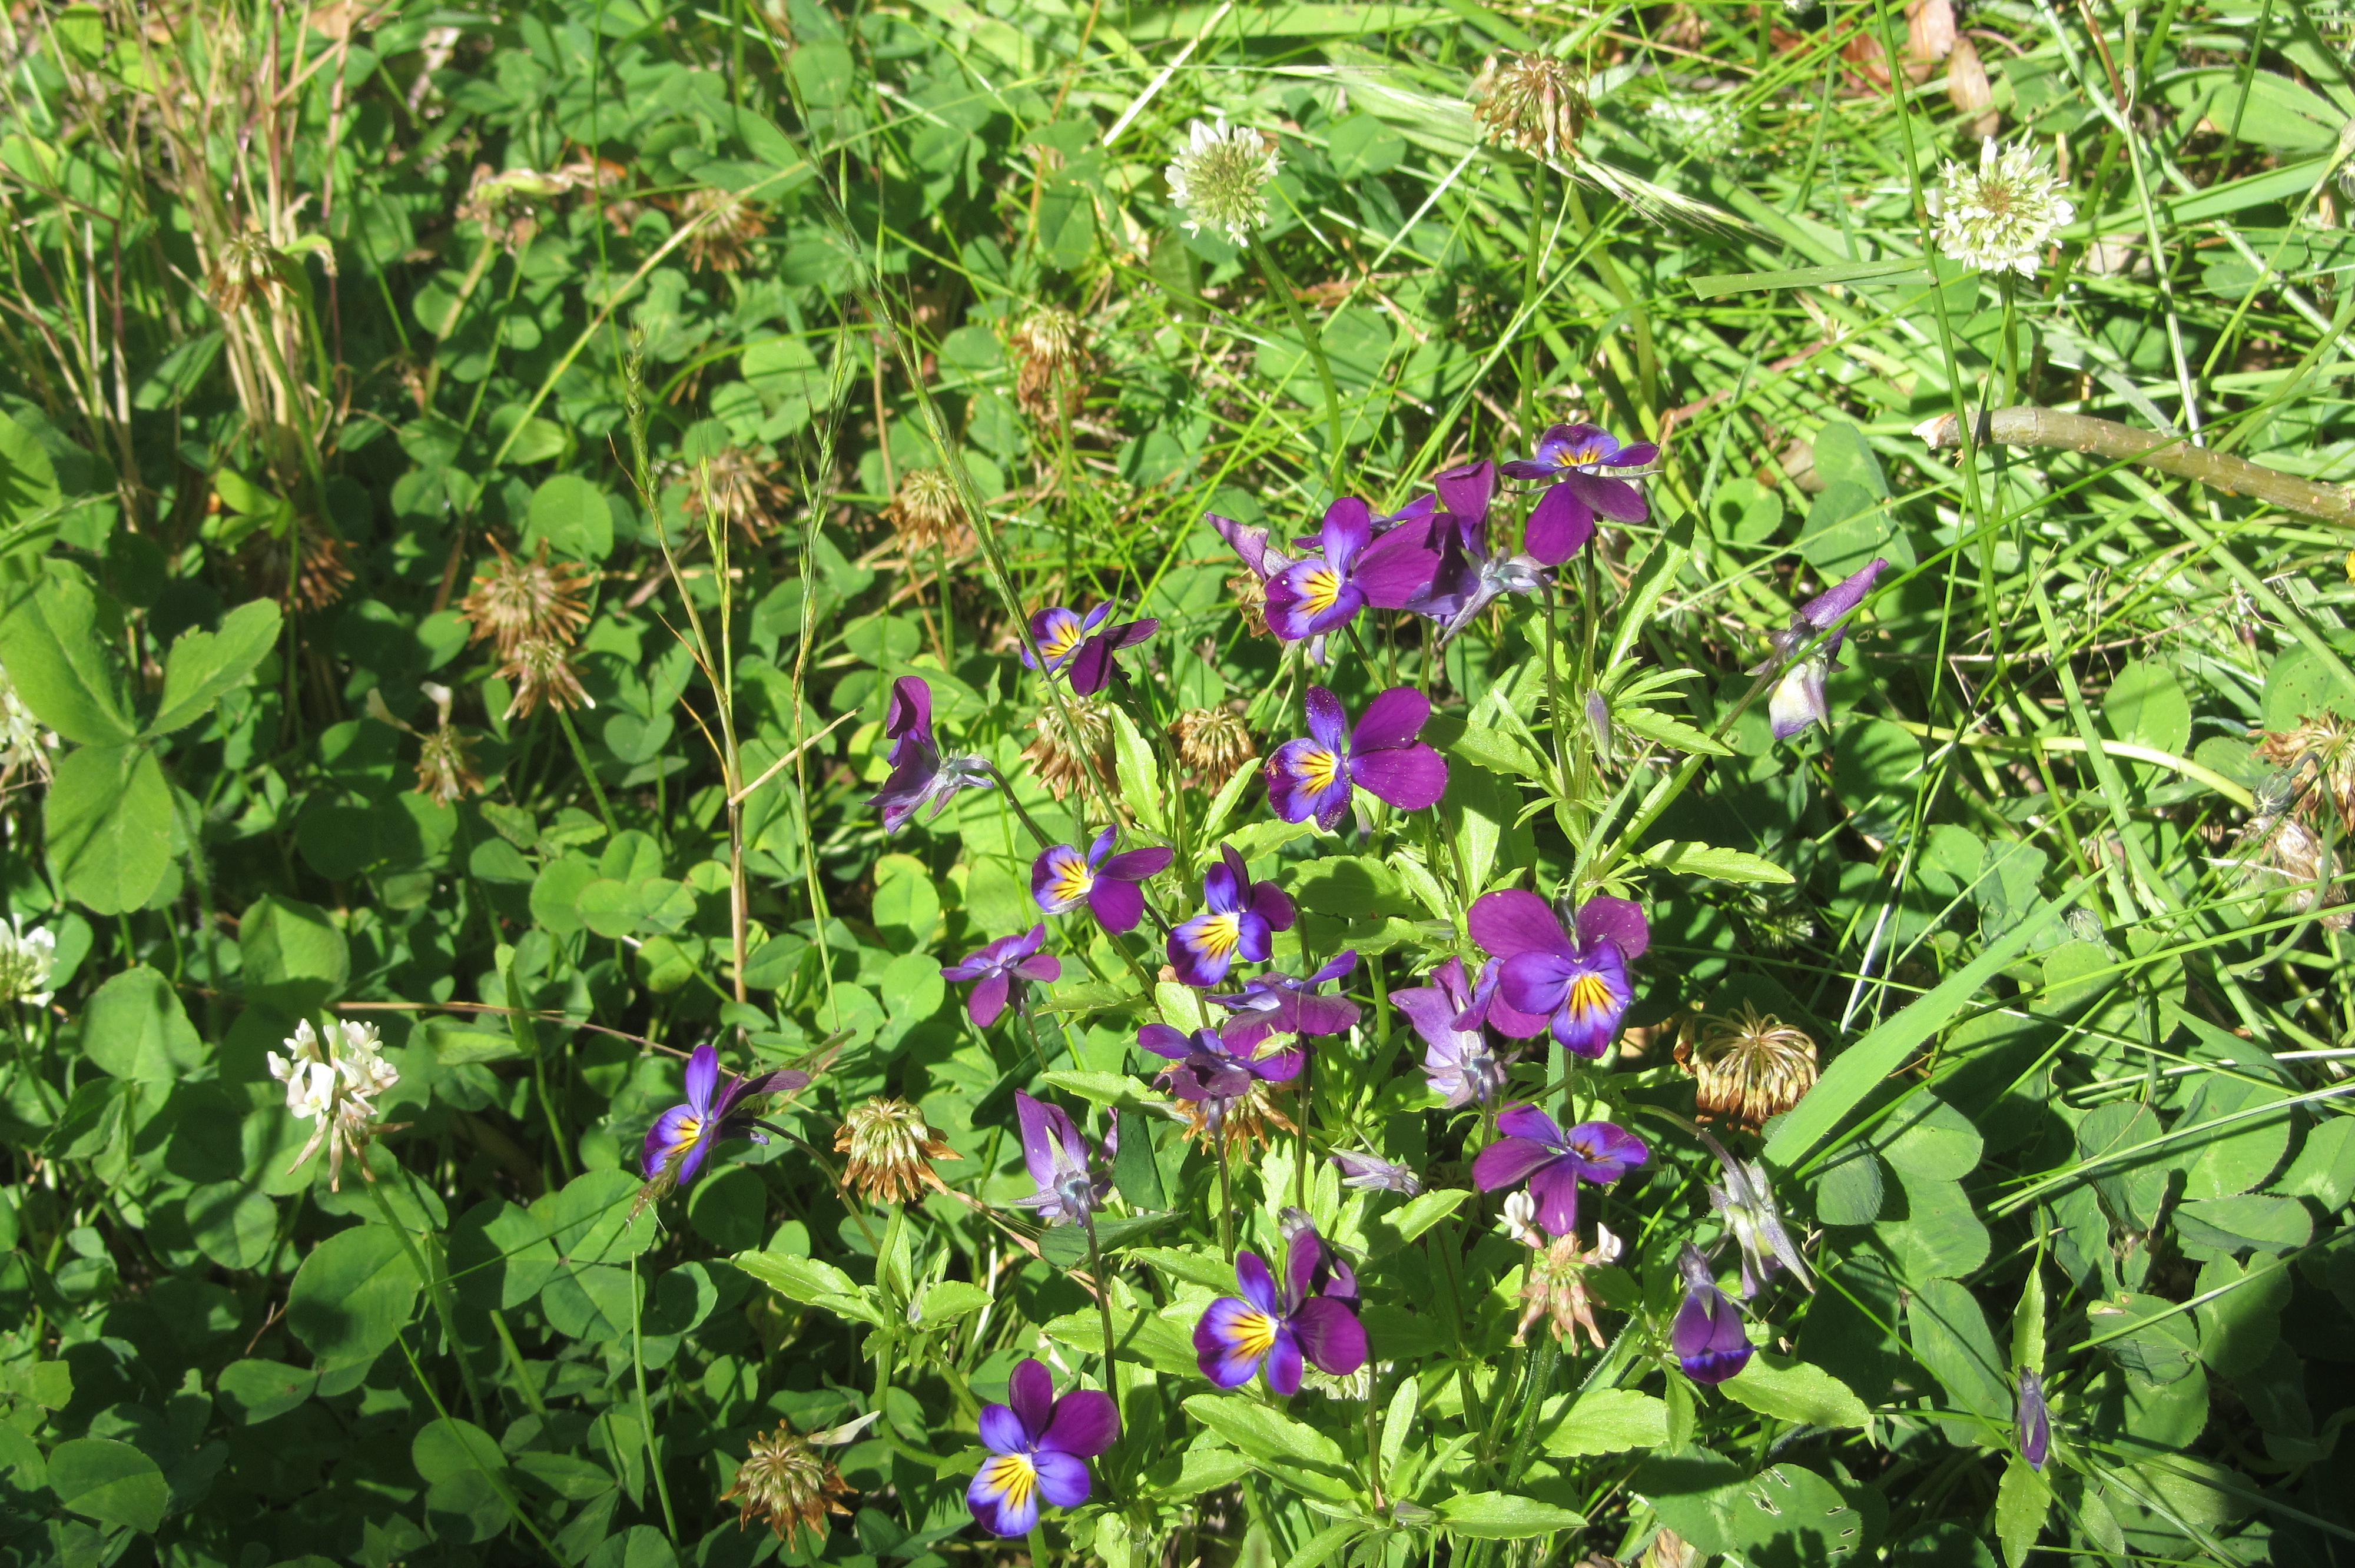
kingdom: Plantae
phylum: Tracheophyta
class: Magnoliopsida
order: Malpighiales
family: Violaceae
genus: Viola
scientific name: Viola tricolor
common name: Pansy
